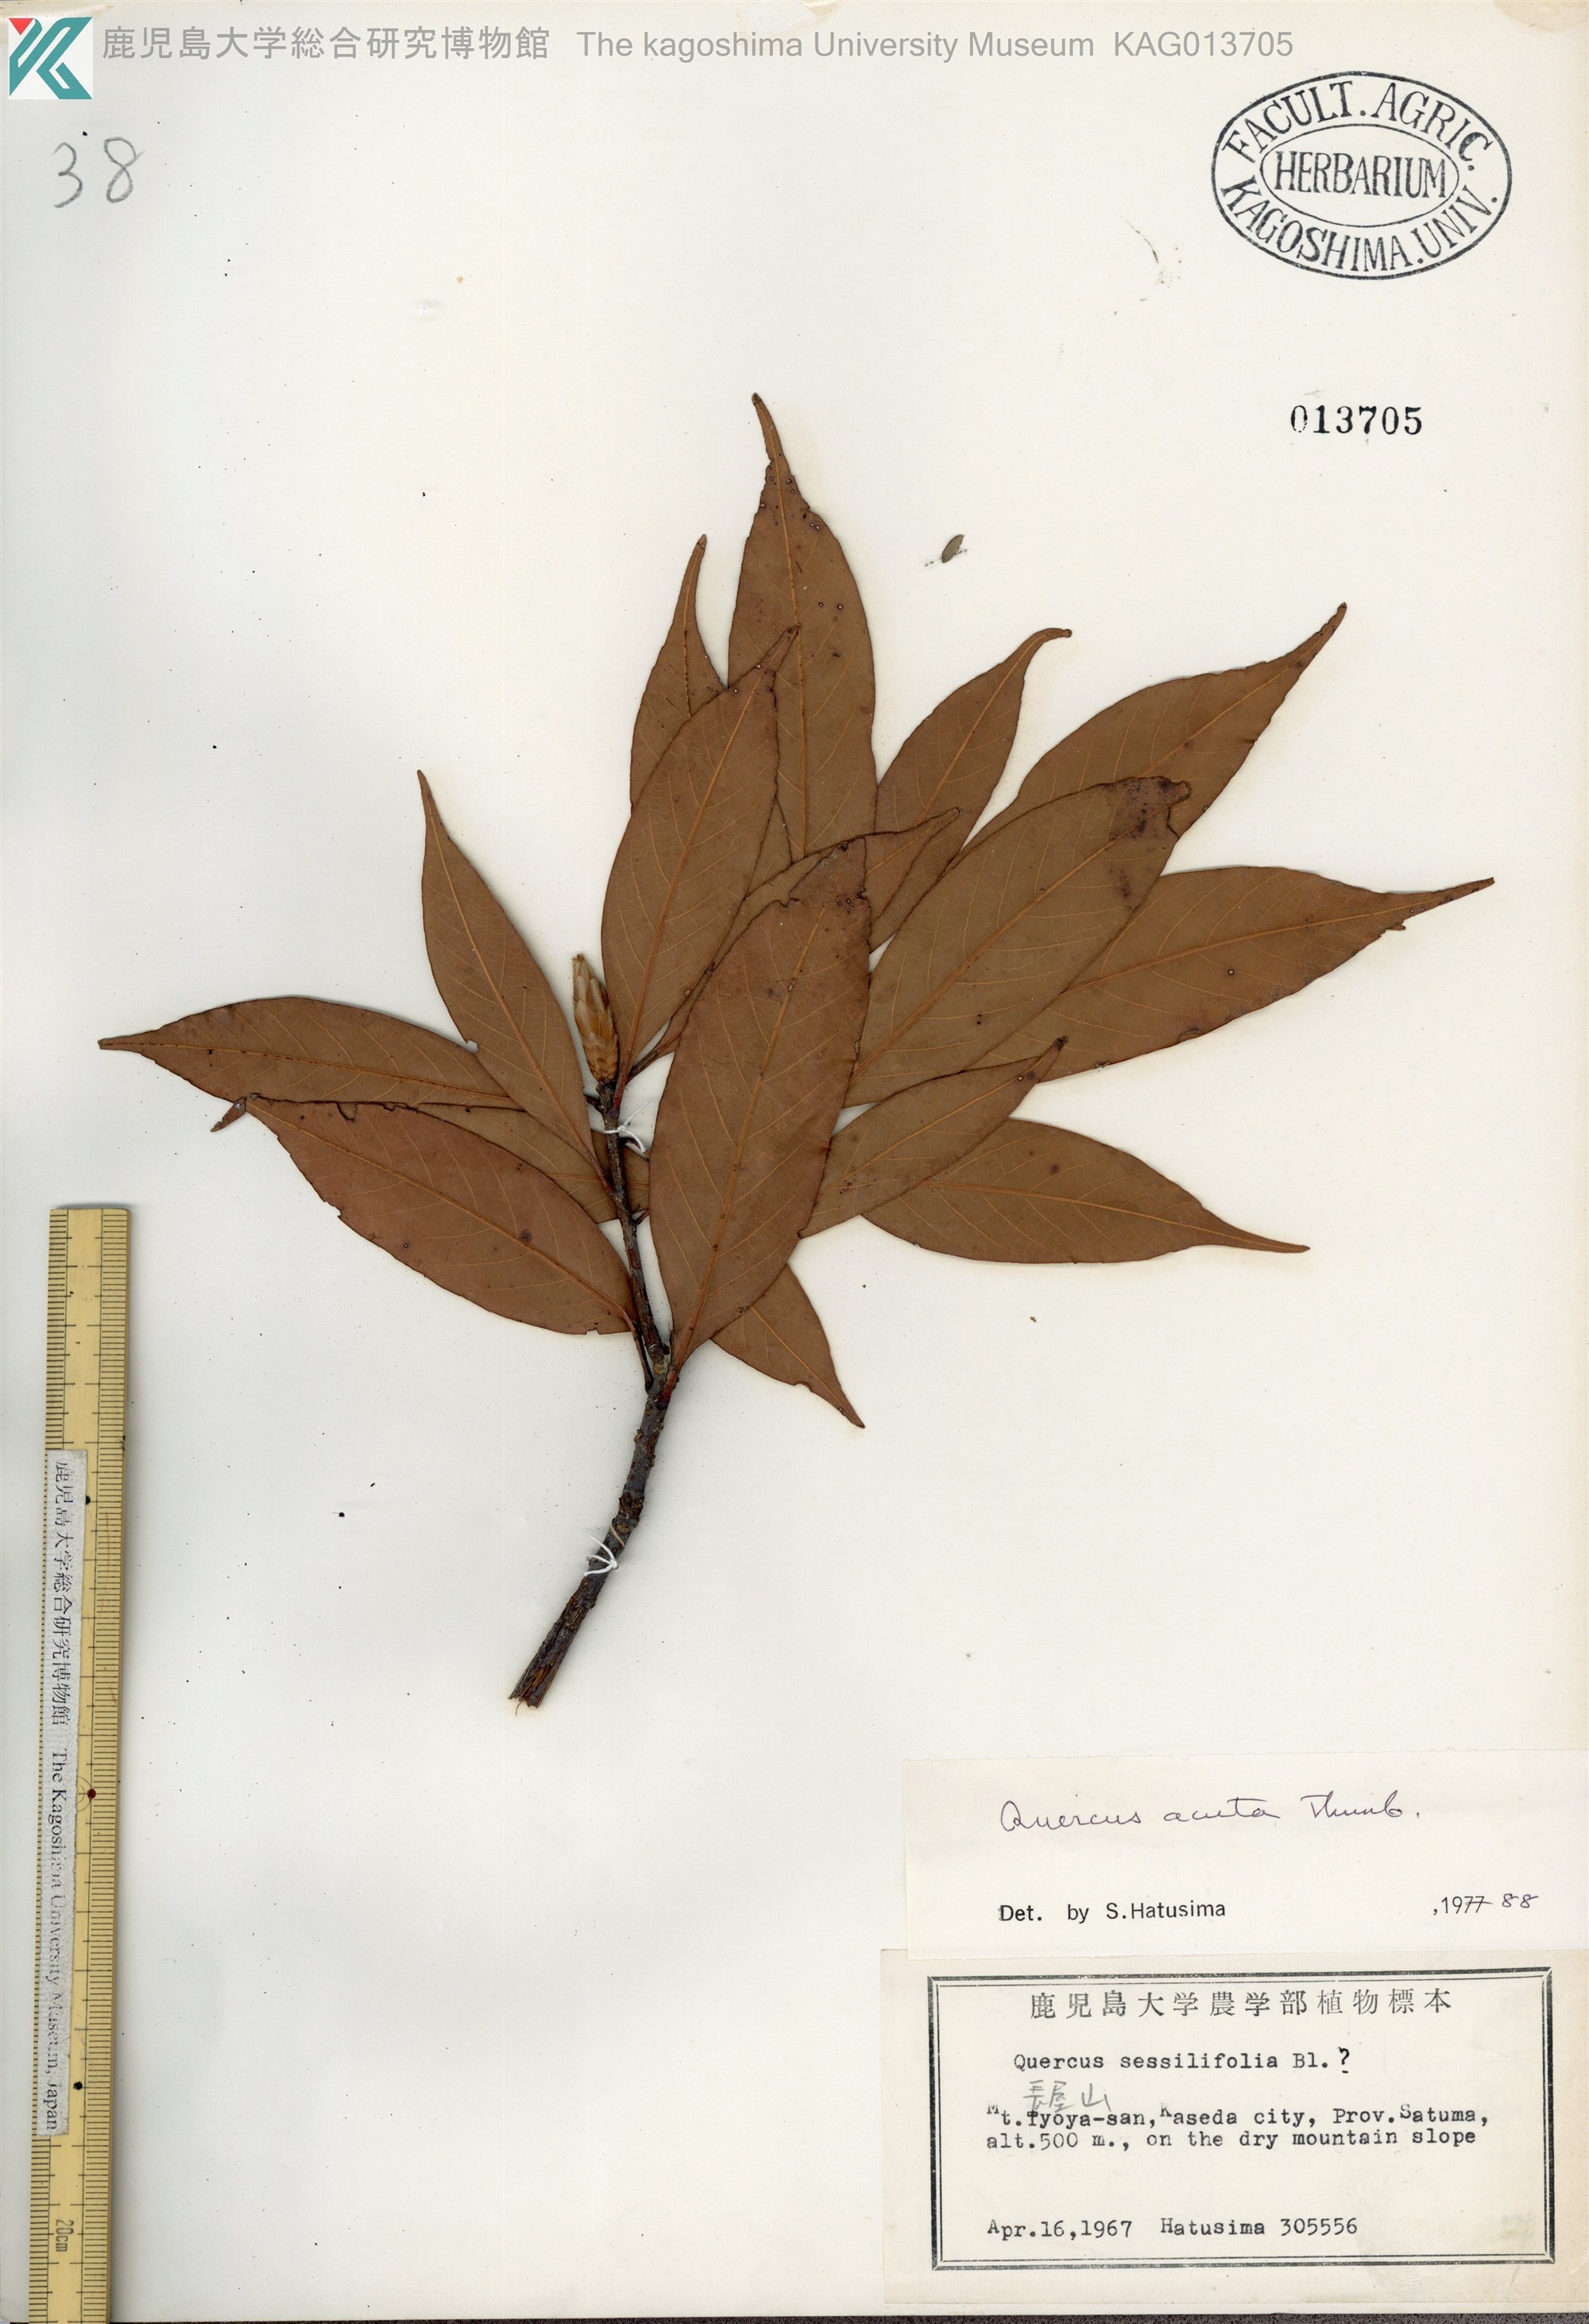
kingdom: Plantae
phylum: Tracheophyta
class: Magnoliopsida
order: Fagales
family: Fagaceae
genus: Quercus
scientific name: Quercus acuta
